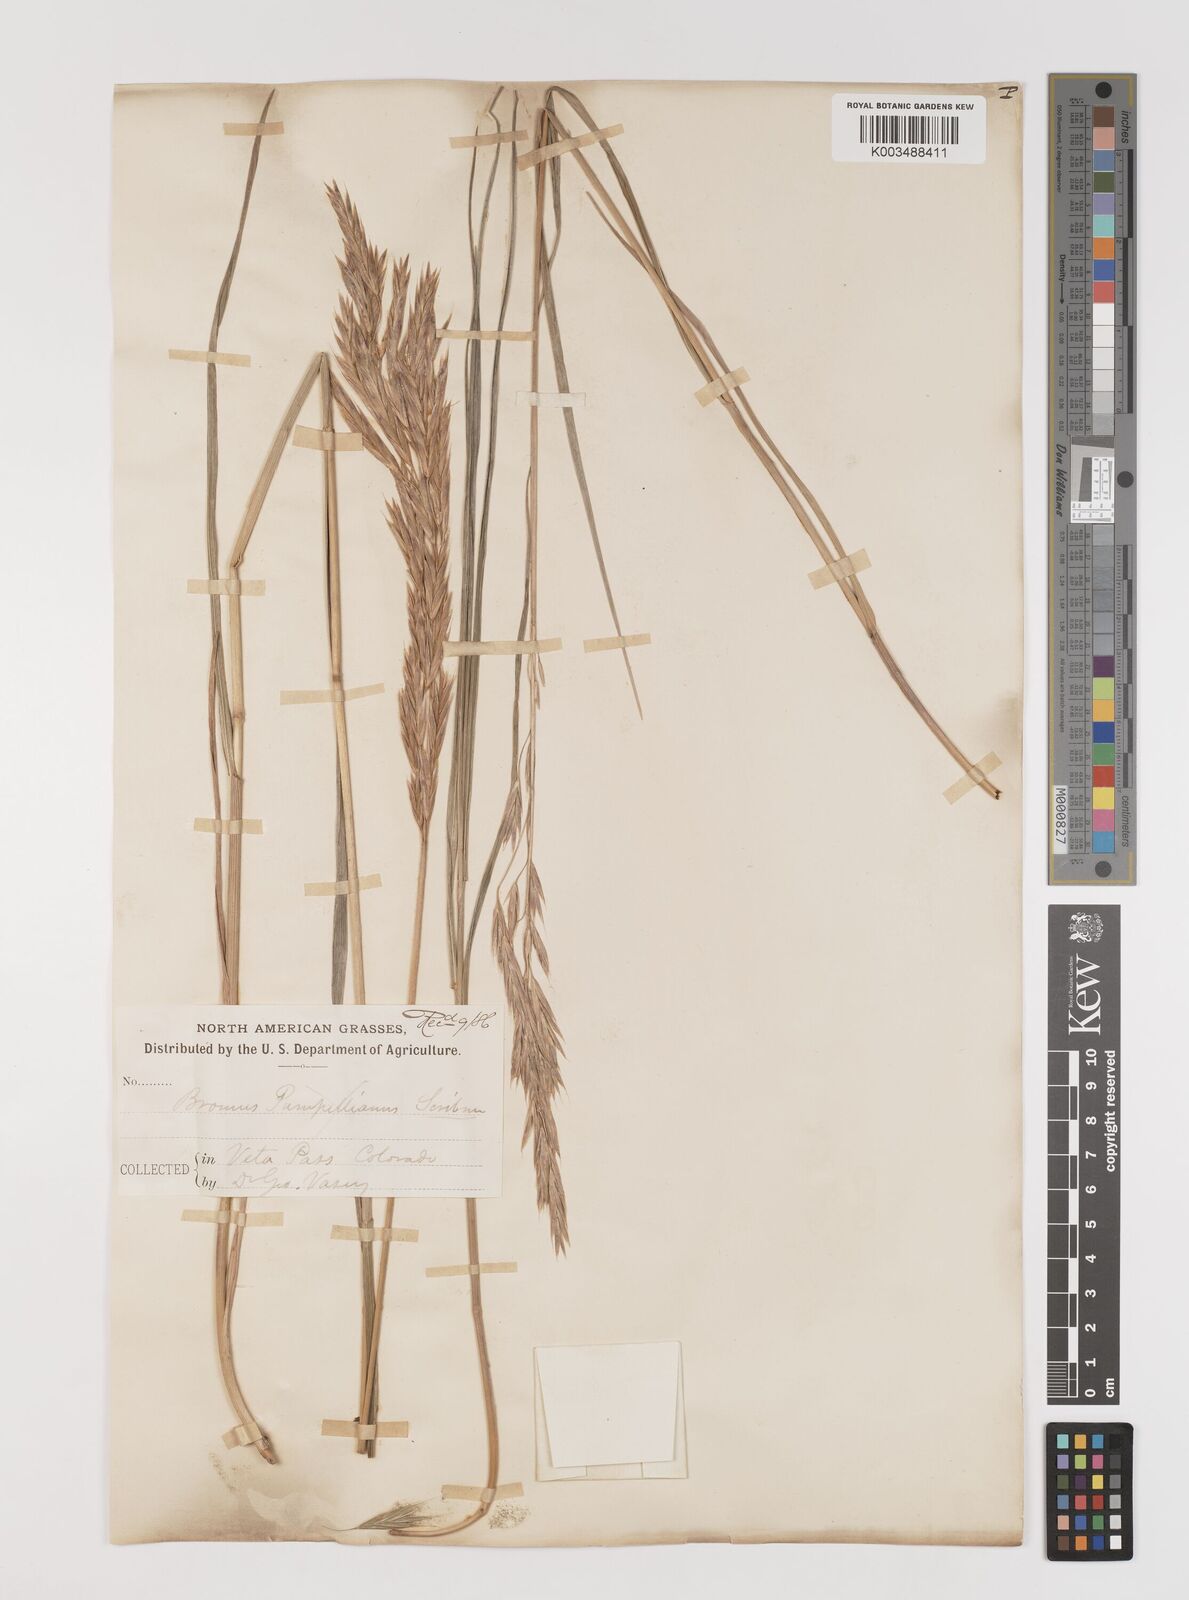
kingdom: Plantae
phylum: Tracheophyta
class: Liliopsida
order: Poales
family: Poaceae
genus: Bromus
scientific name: Bromus ciliatus
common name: Fringe brome
